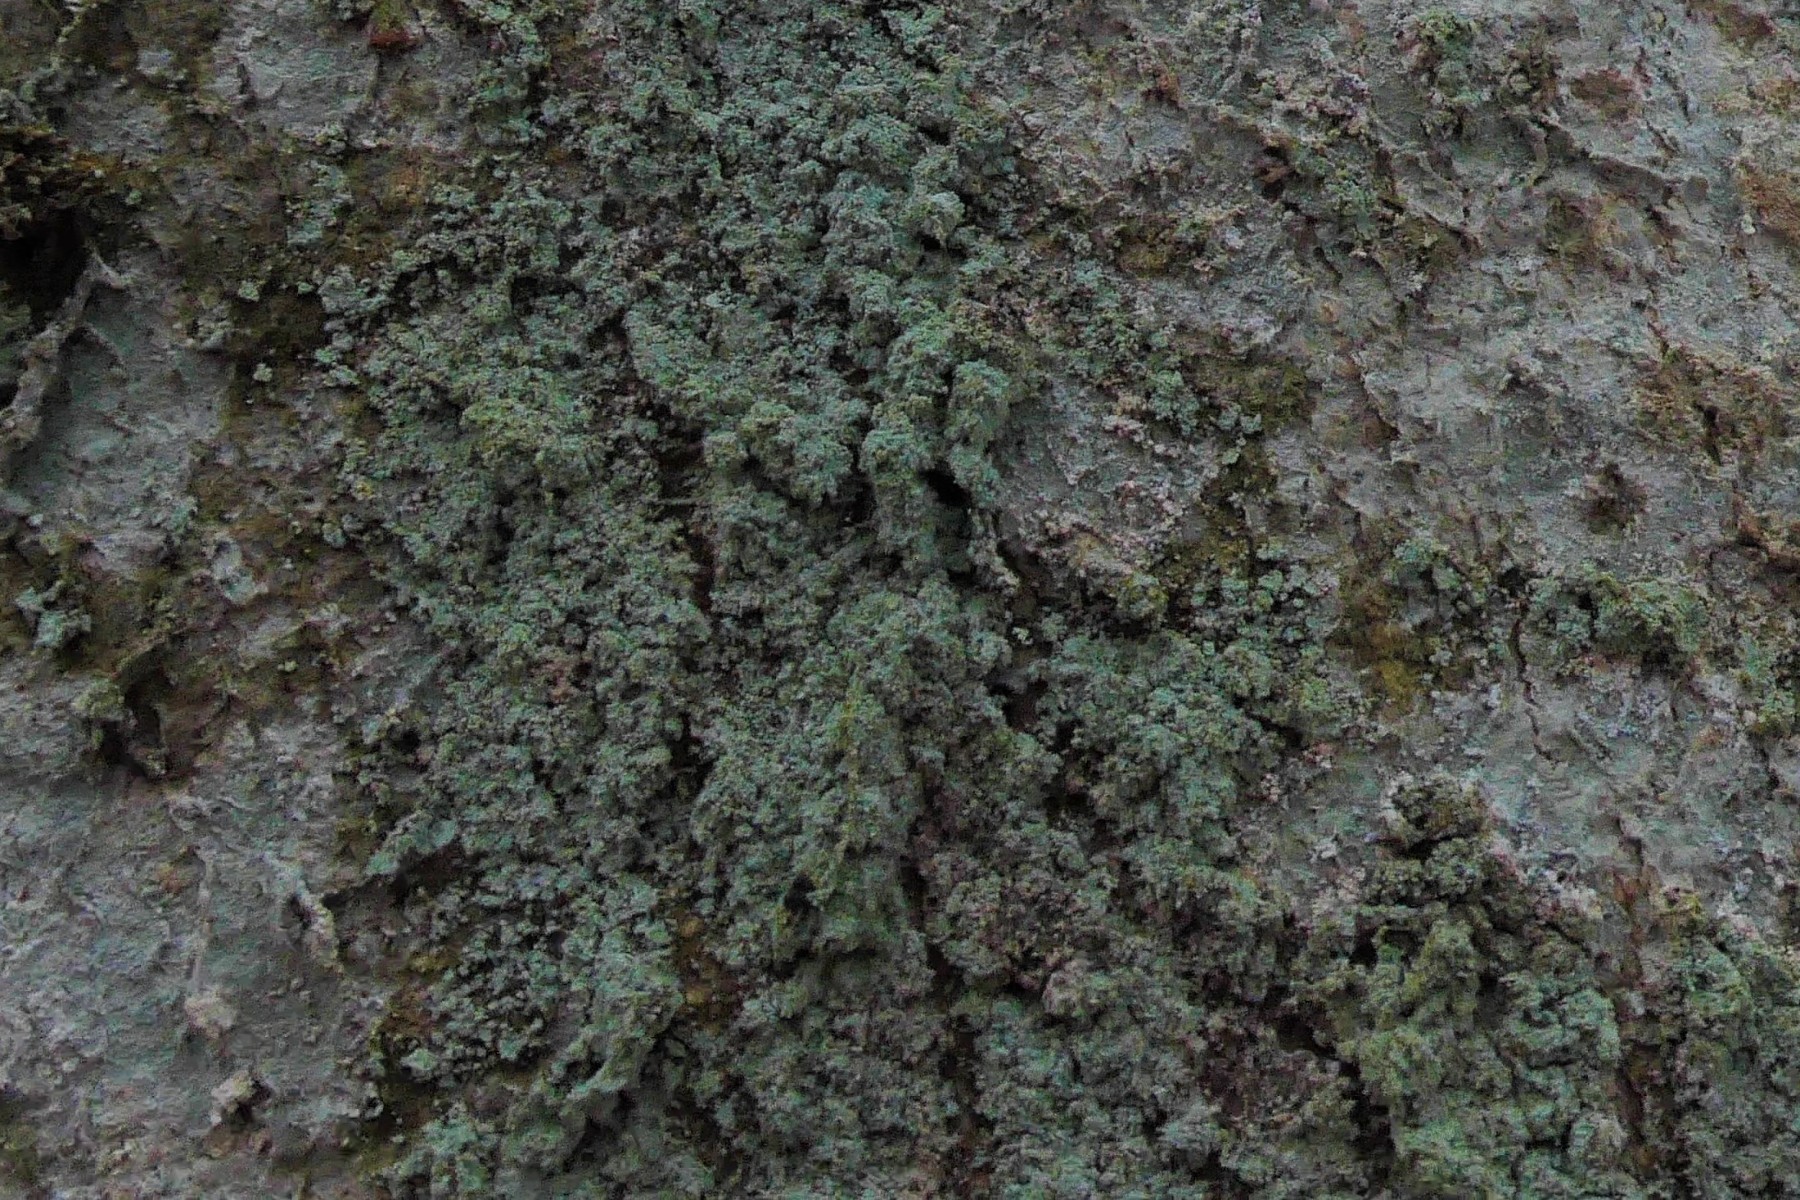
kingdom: Fungi
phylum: Ascomycota
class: Lecanoromycetes
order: Lecanorales
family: Stereocaulaceae
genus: Lepraria
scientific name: Lepraria incana
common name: almindelig støvlav
